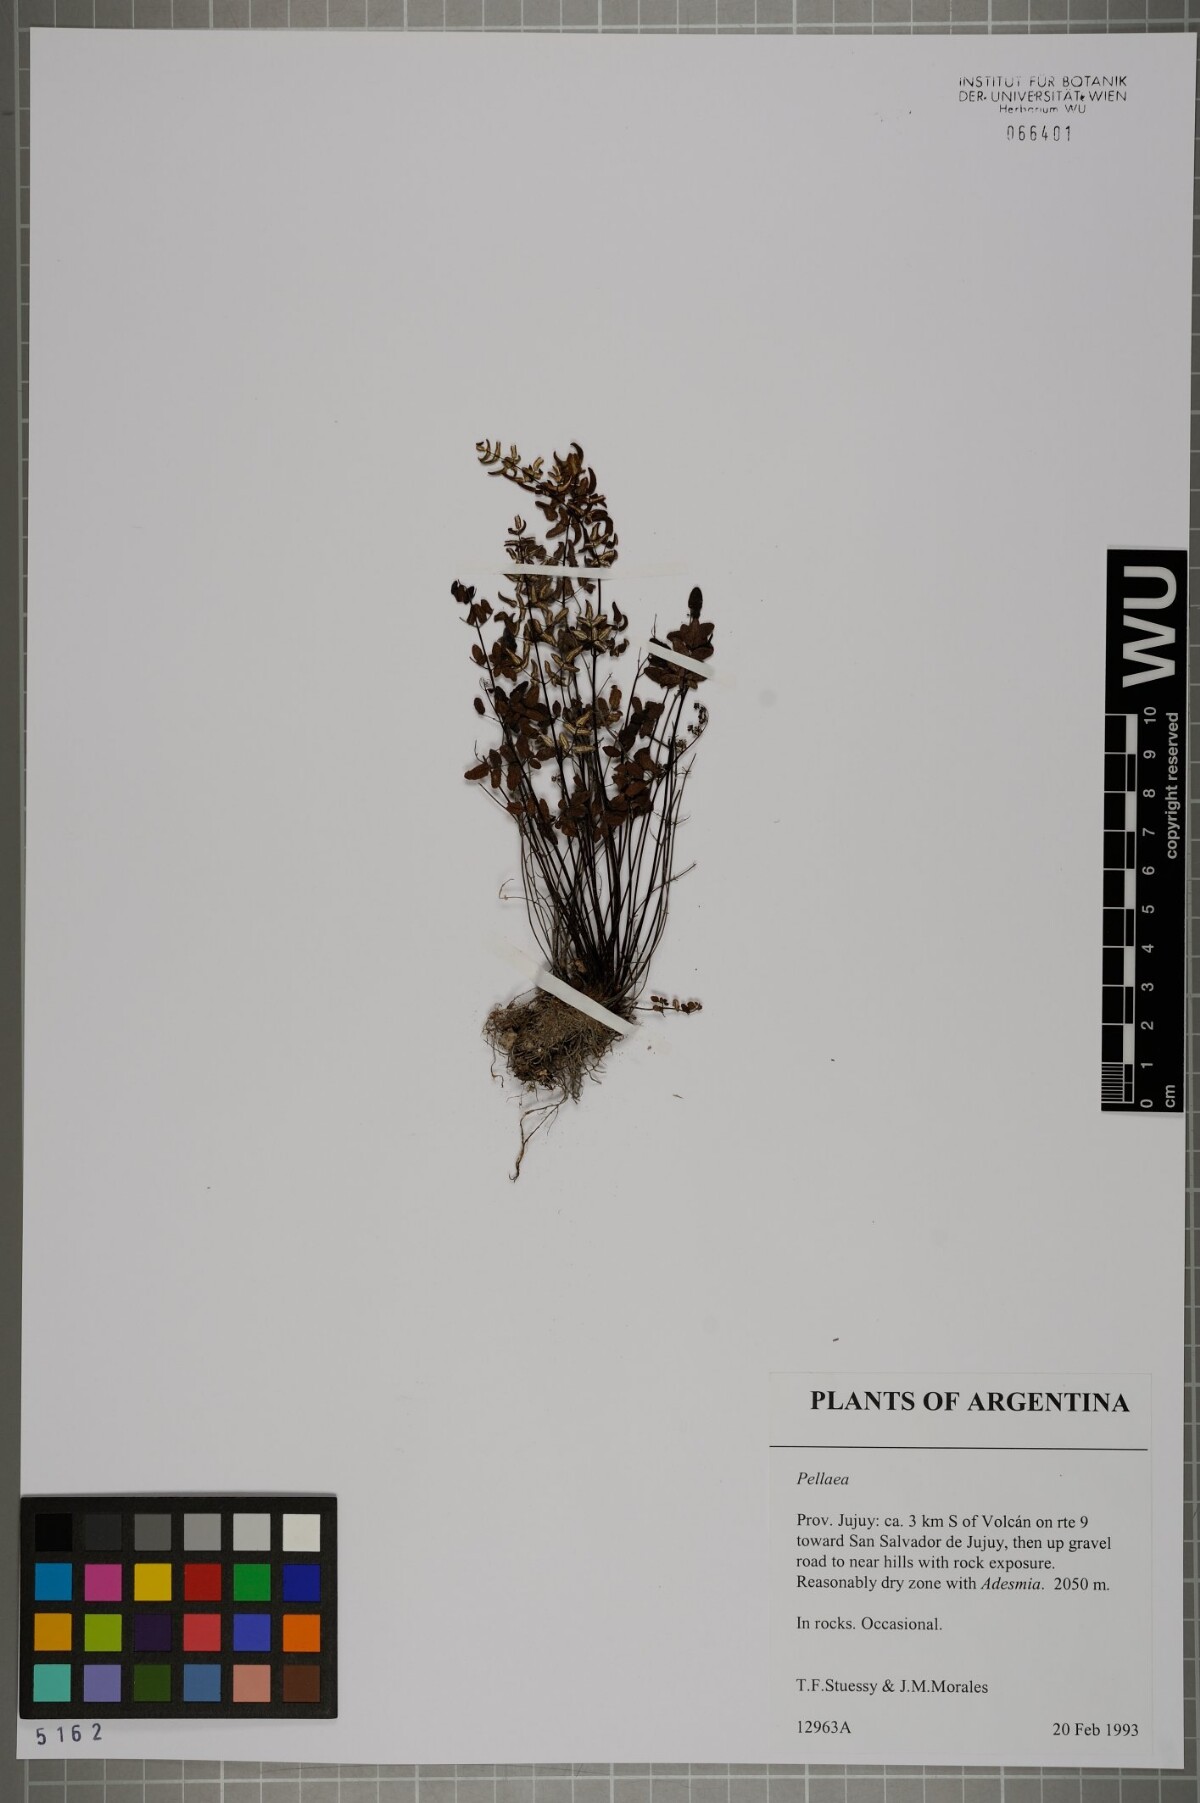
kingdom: Plantae
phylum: Tracheophyta
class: Polypodiopsida
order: Polypodiales
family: Pteridaceae
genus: Pellaea
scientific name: Pellaea
